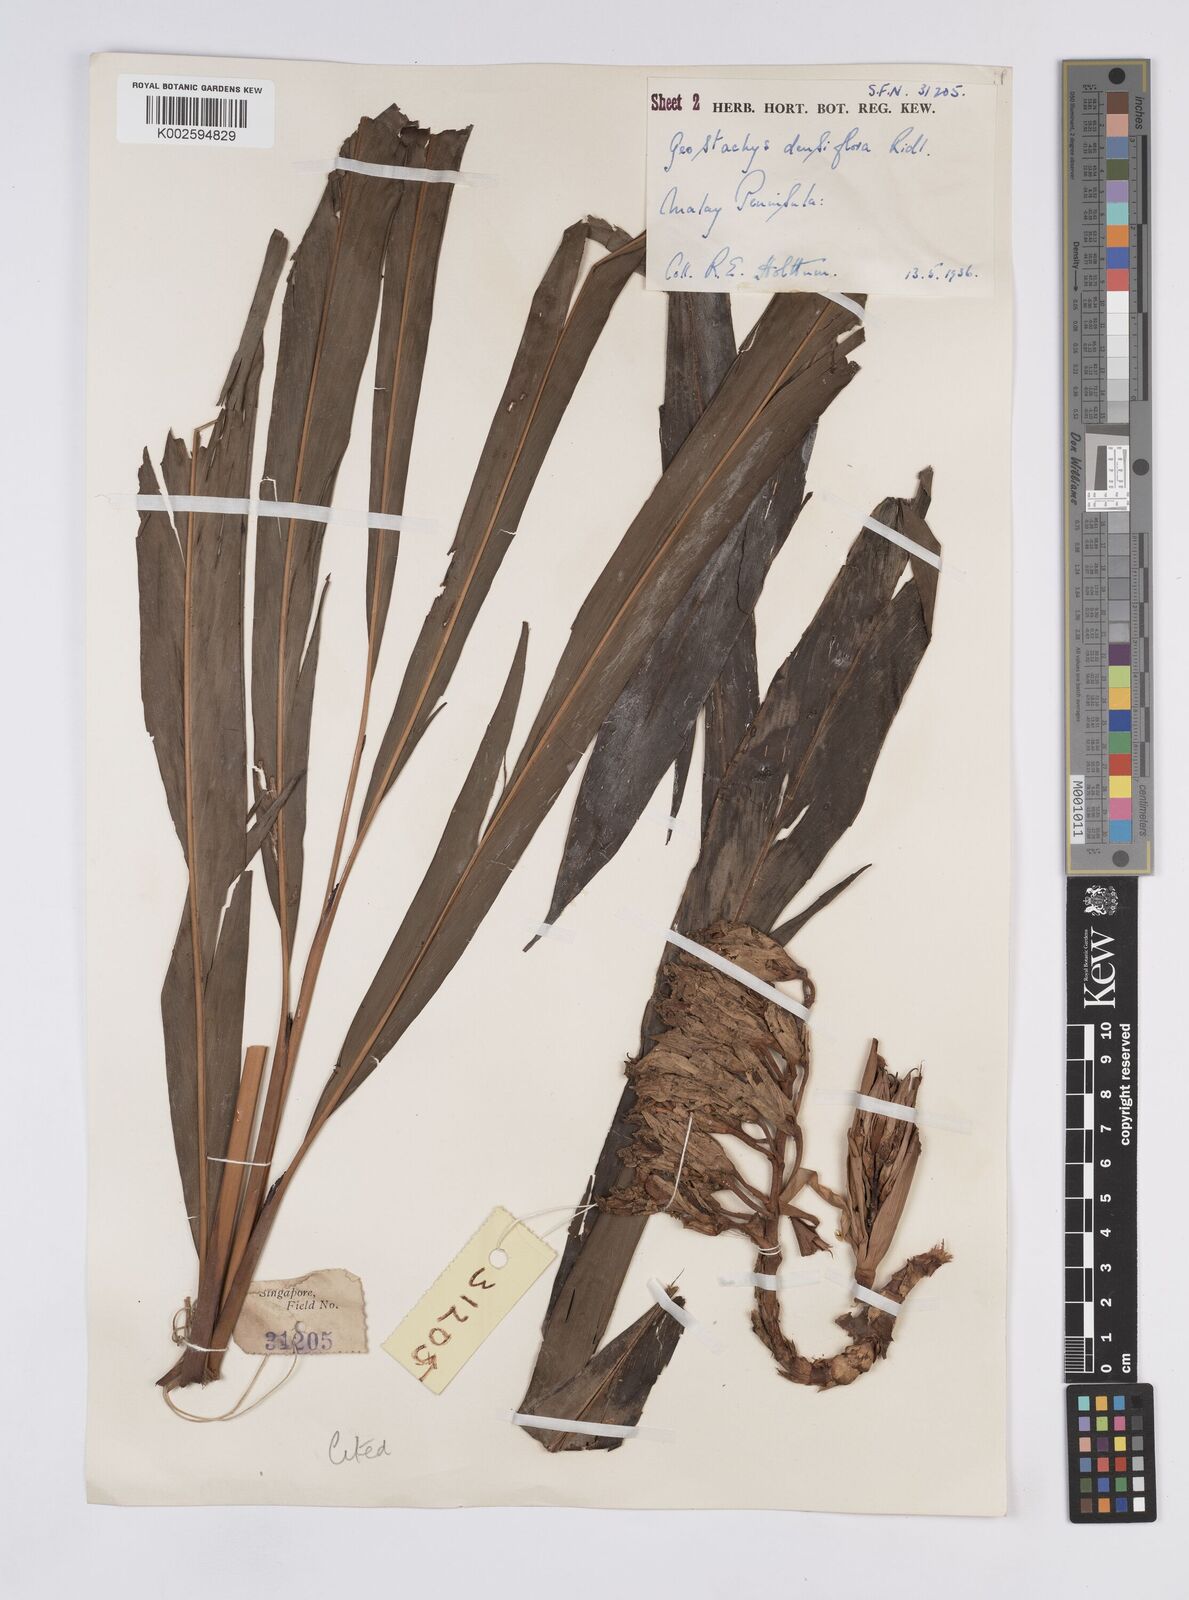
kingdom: Plantae
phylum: Tracheophyta
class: Liliopsida
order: Zingiberales
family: Zingiberaceae
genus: Geostachys
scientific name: Geostachys densiflora
